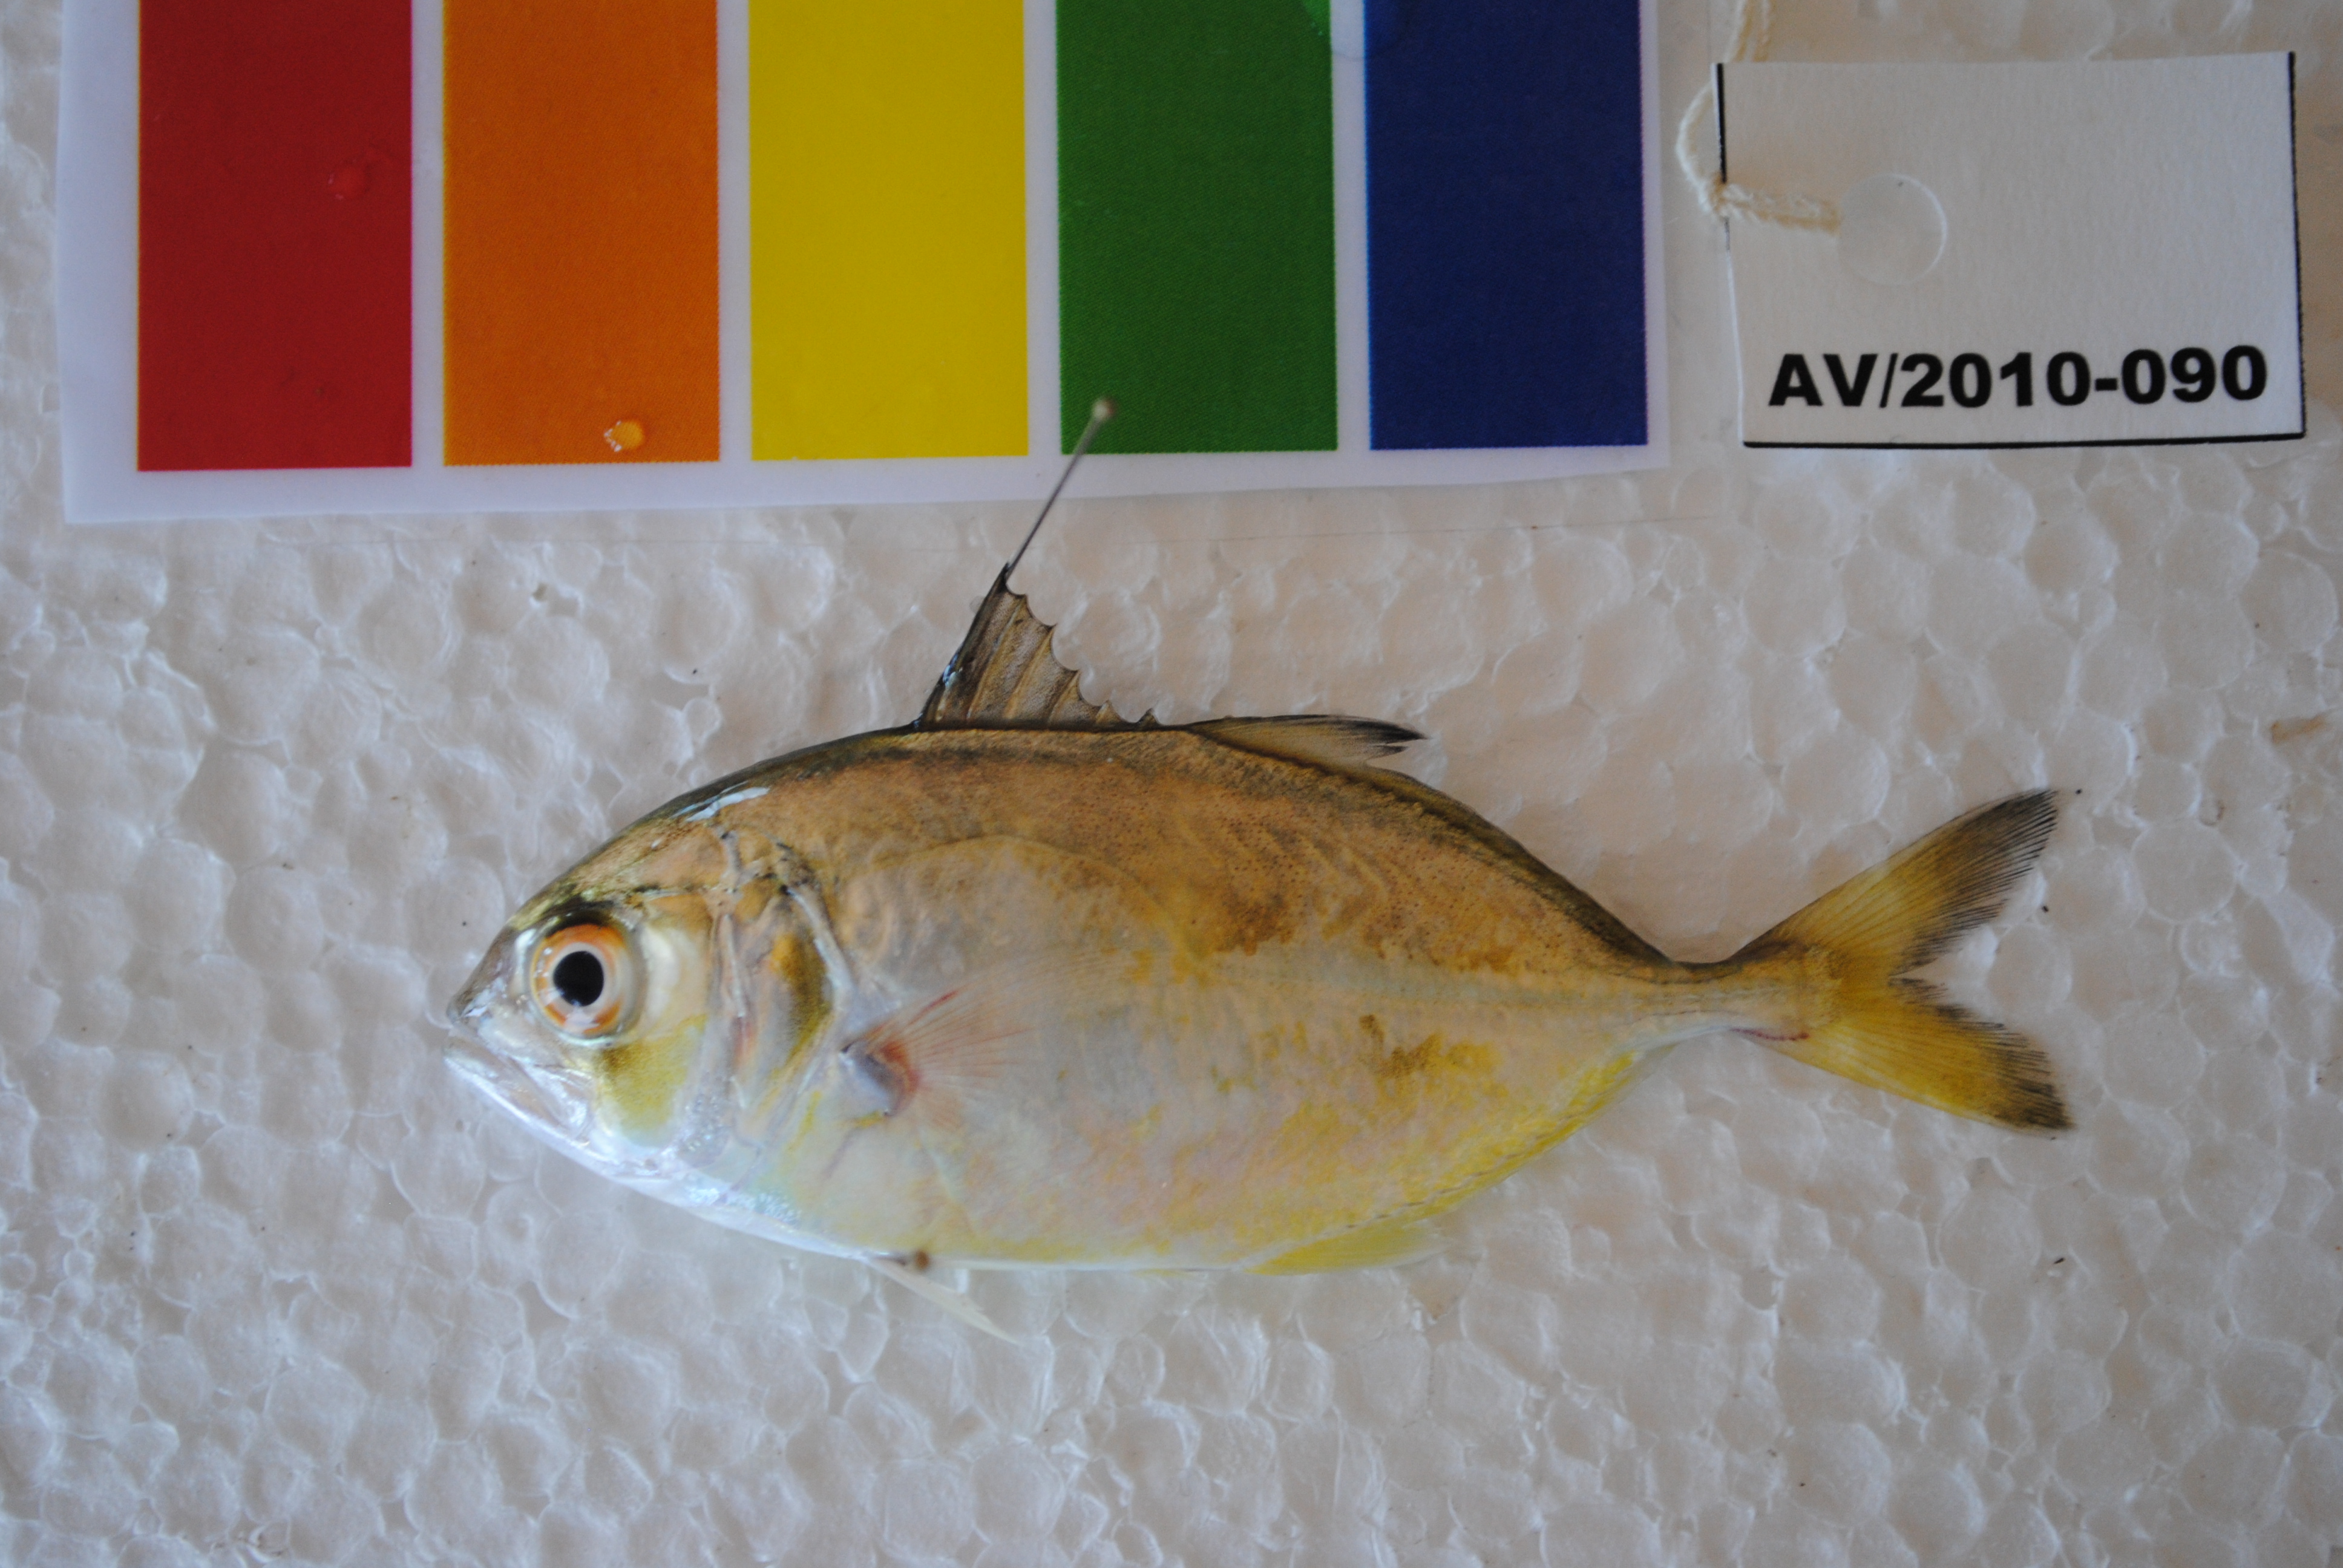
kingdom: Animalia
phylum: Chordata
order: Perciformes
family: Carangidae
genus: Caranx
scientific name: Caranx
